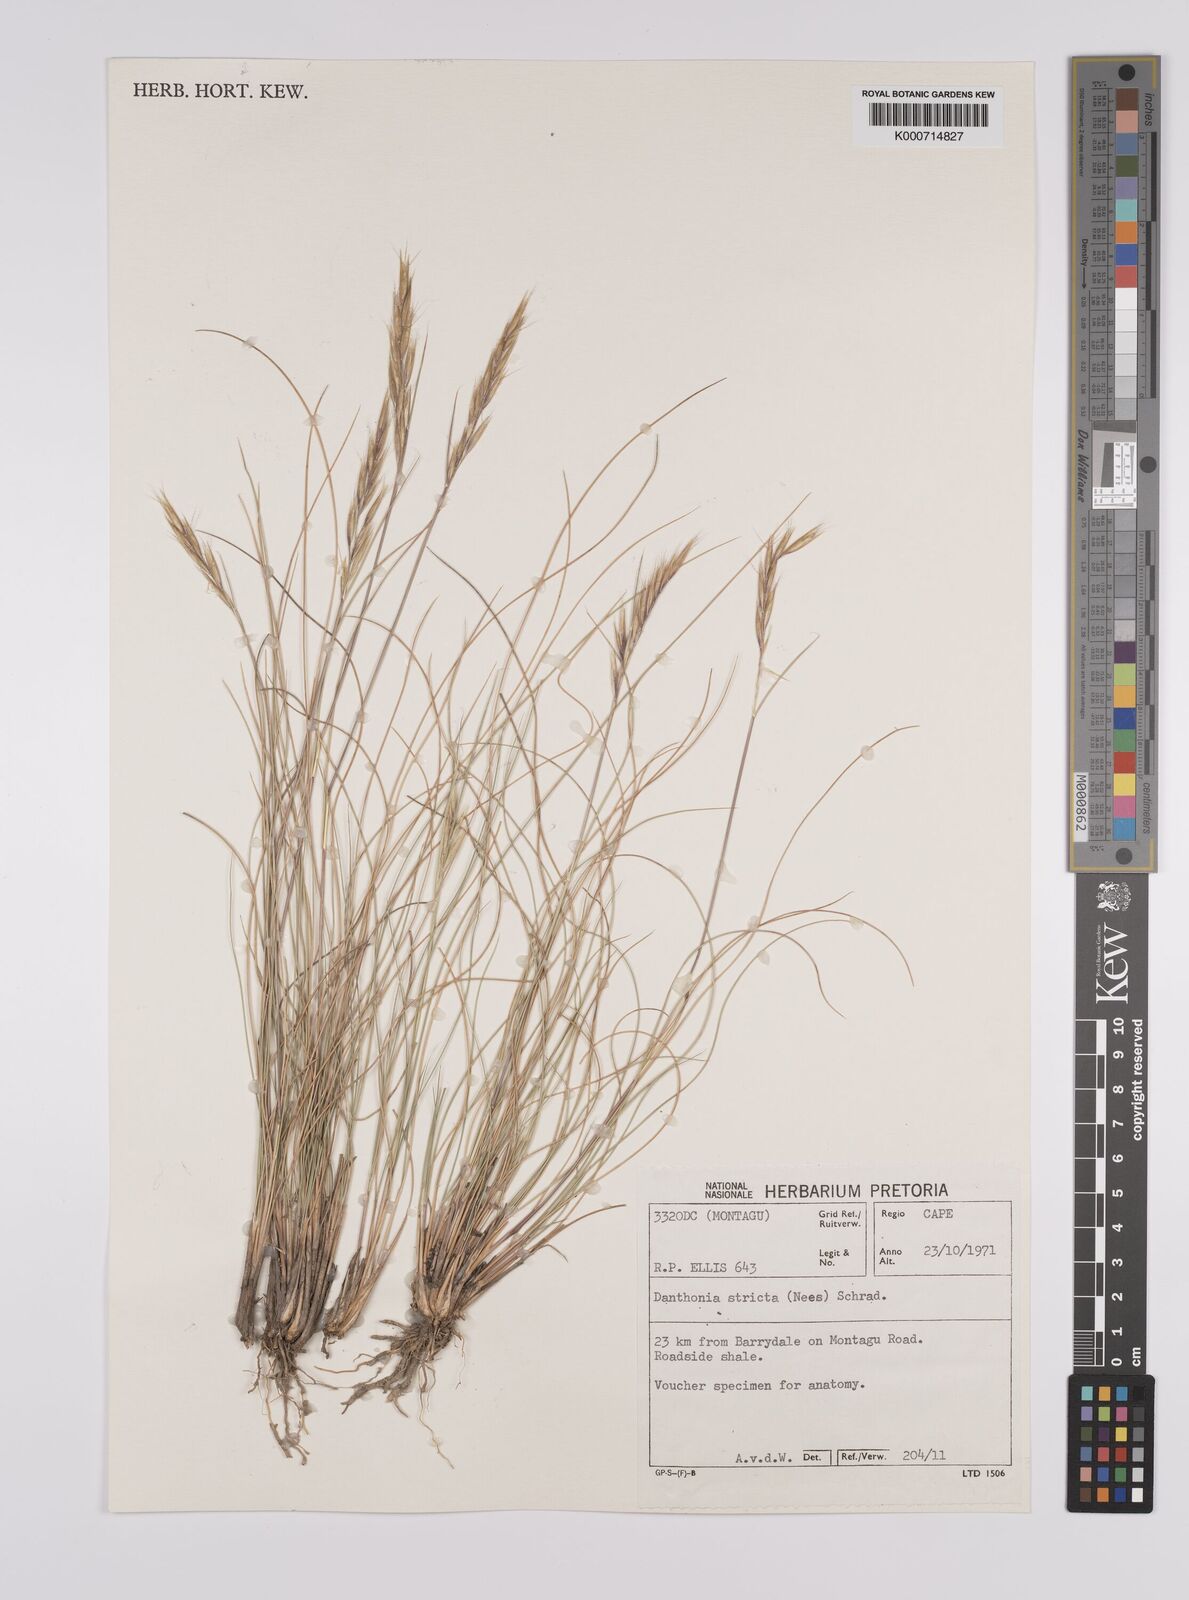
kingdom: Plantae
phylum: Tracheophyta
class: Liliopsida
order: Poales
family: Poaceae
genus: Rytidosperma
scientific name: Rytidosperma
